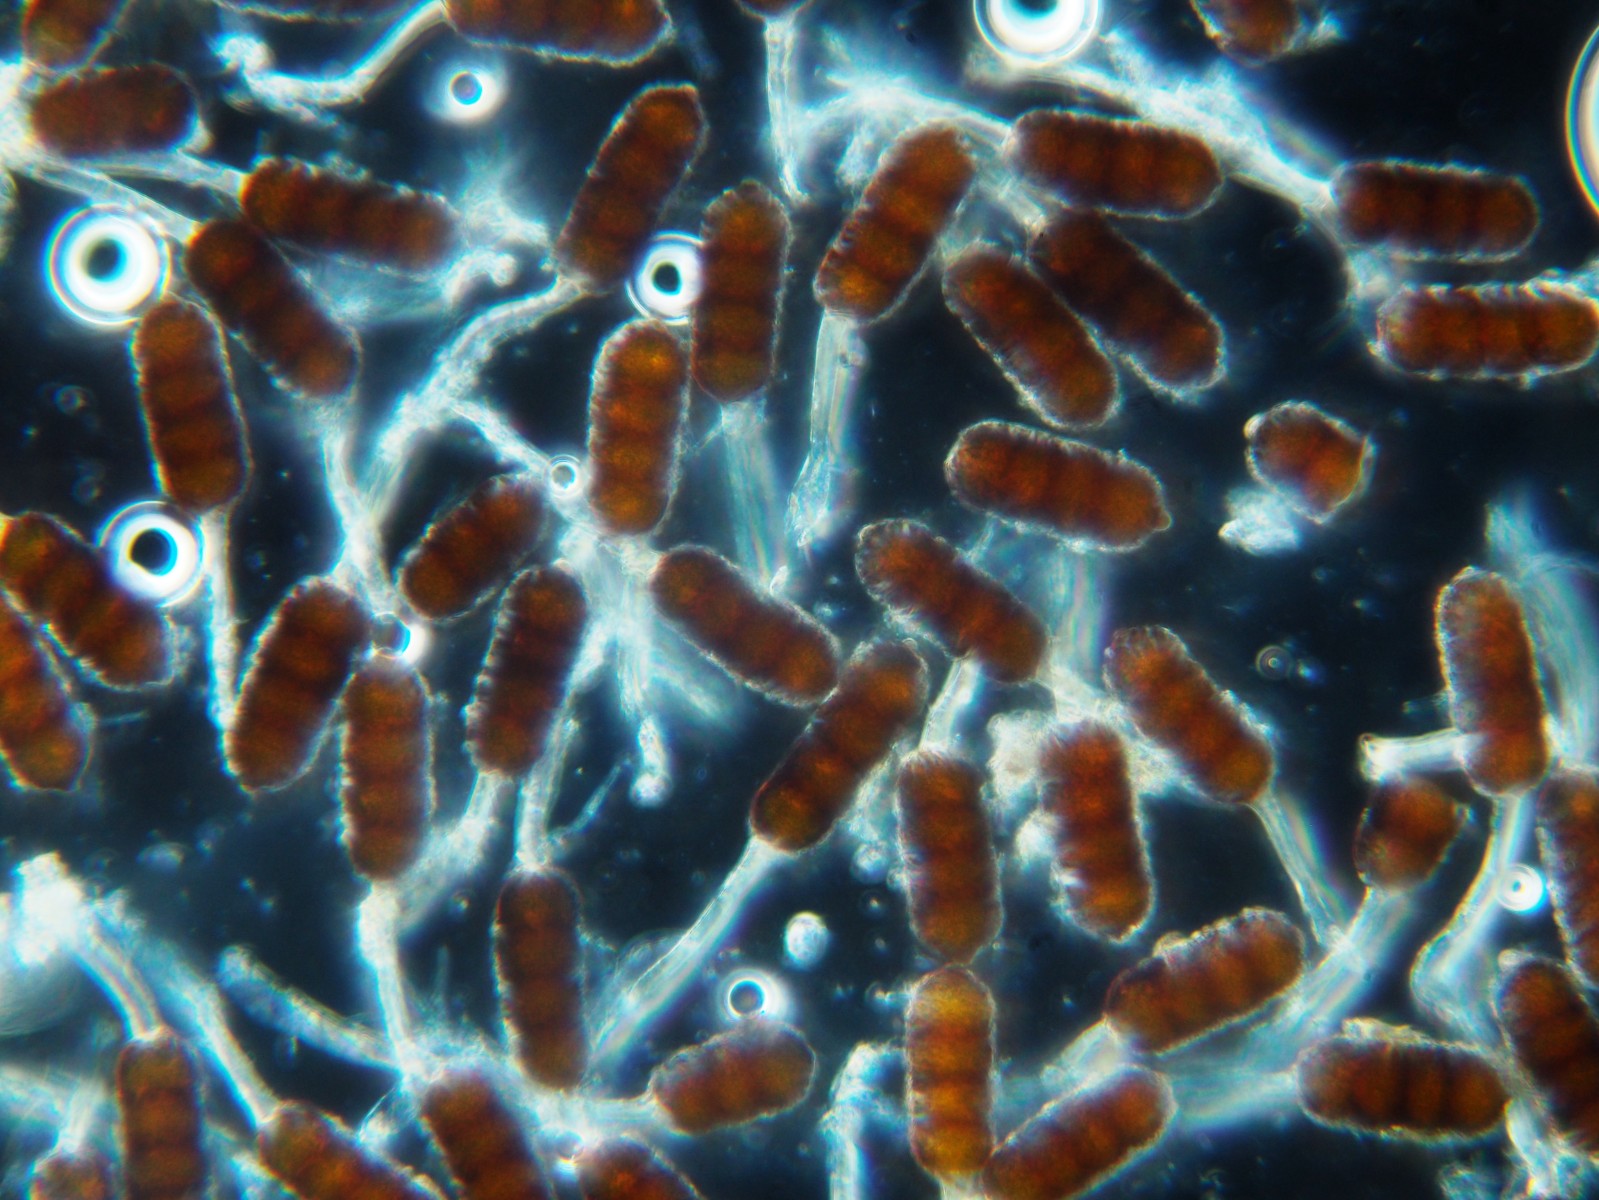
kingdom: Fungi
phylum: Basidiomycota
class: Pucciniomycetes
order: Pucciniales
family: Phragmidiaceae
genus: Phragmidium
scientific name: Phragmidium violaceum
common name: violet flercellerust
